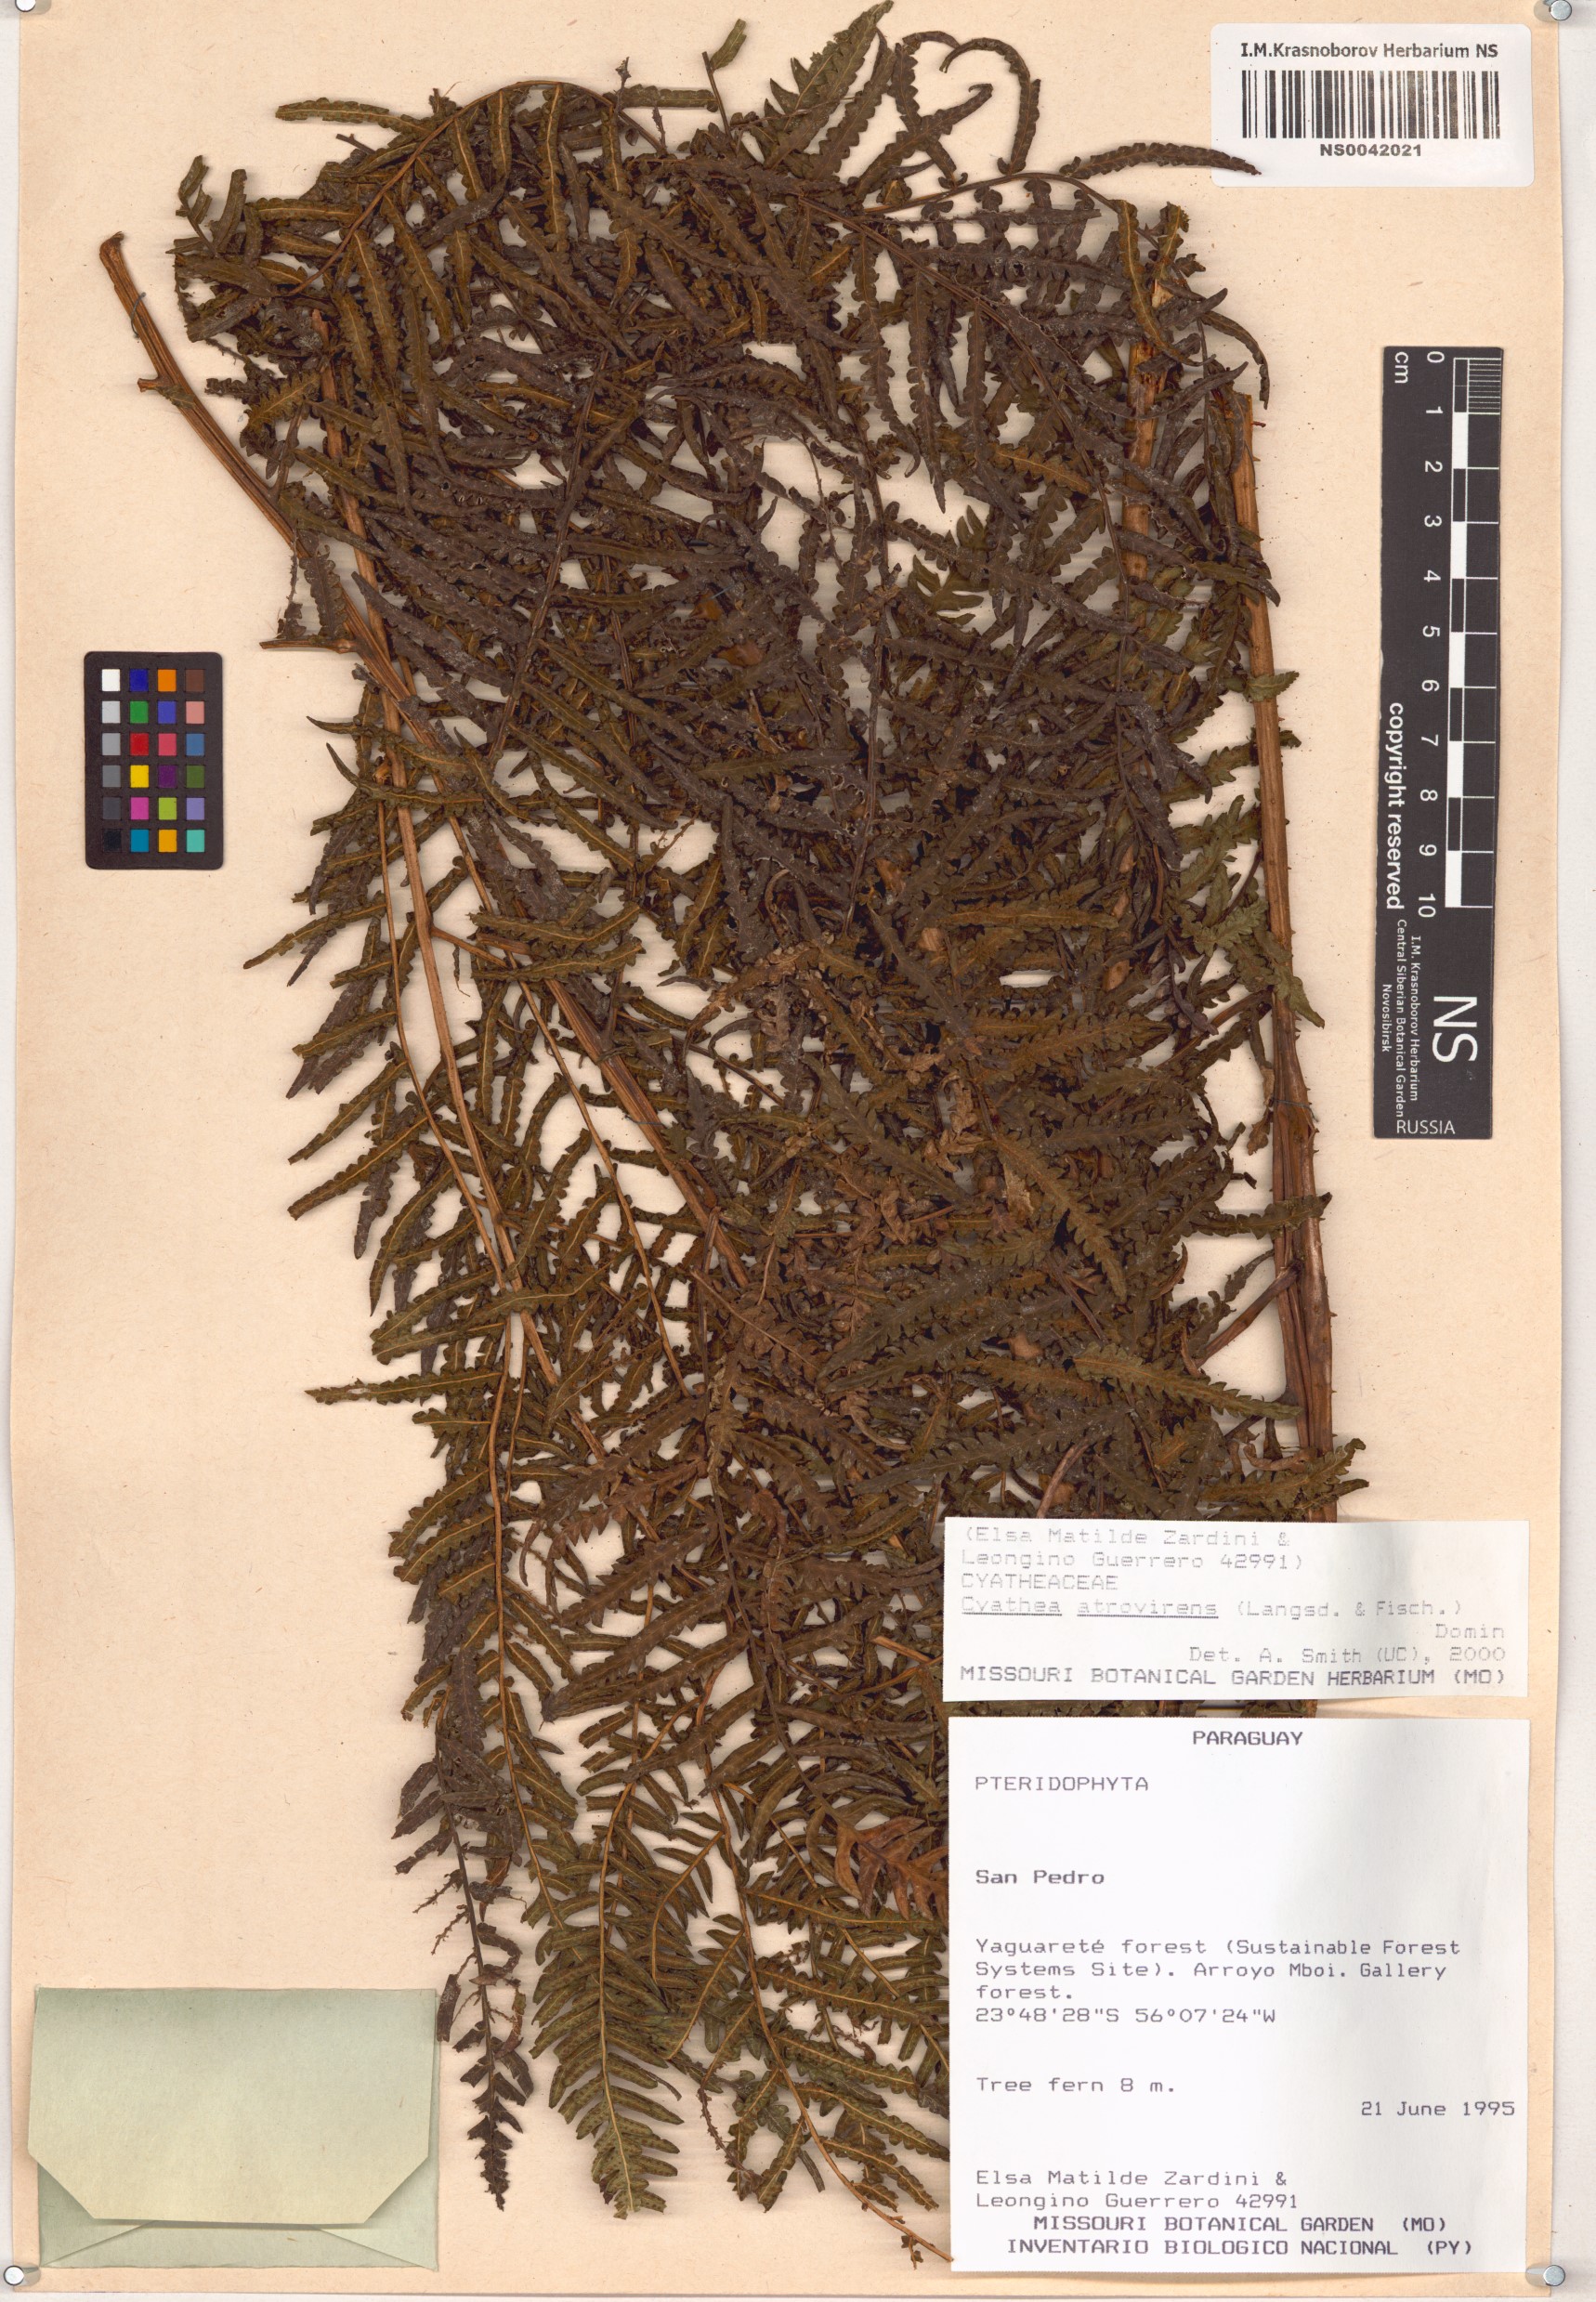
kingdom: Plantae
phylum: Tracheophyta
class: Polypodiopsida
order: Cyatheales
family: Cyatheaceae
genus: Cyathea
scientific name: Cyathea atrovirens
